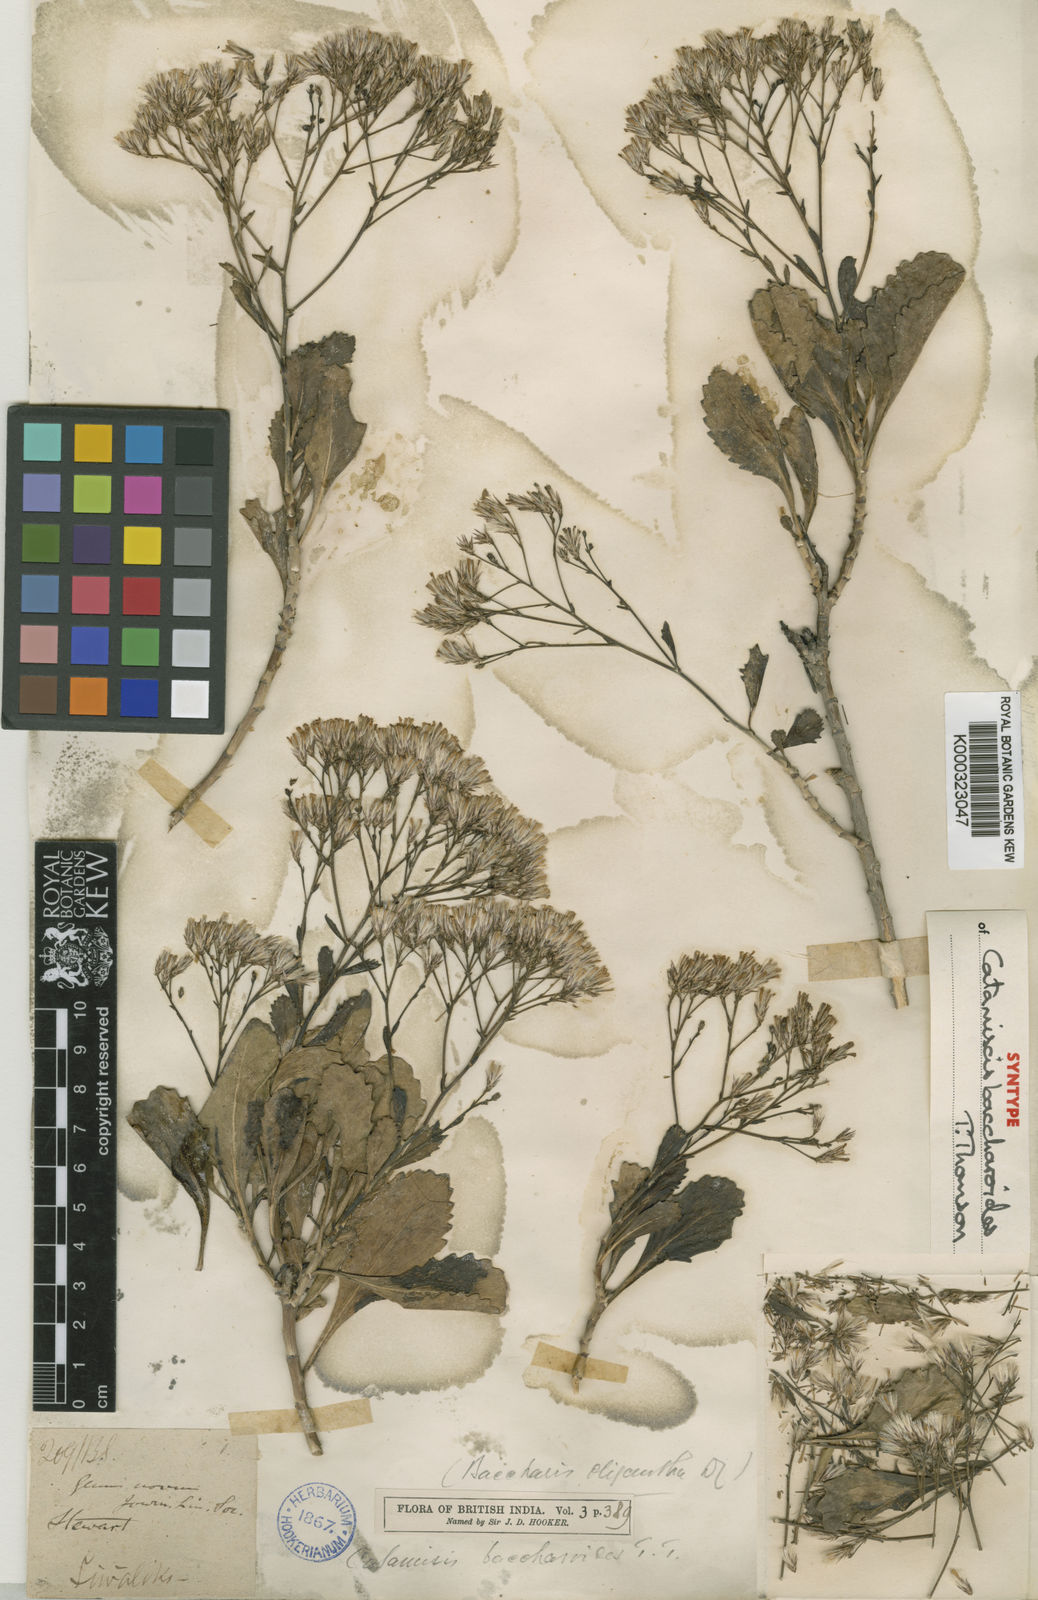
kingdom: Plantae
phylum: Tracheophyta
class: Magnoliopsida
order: Asterales
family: Asteraceae
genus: Catamixis
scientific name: Catamixis baccharoides
